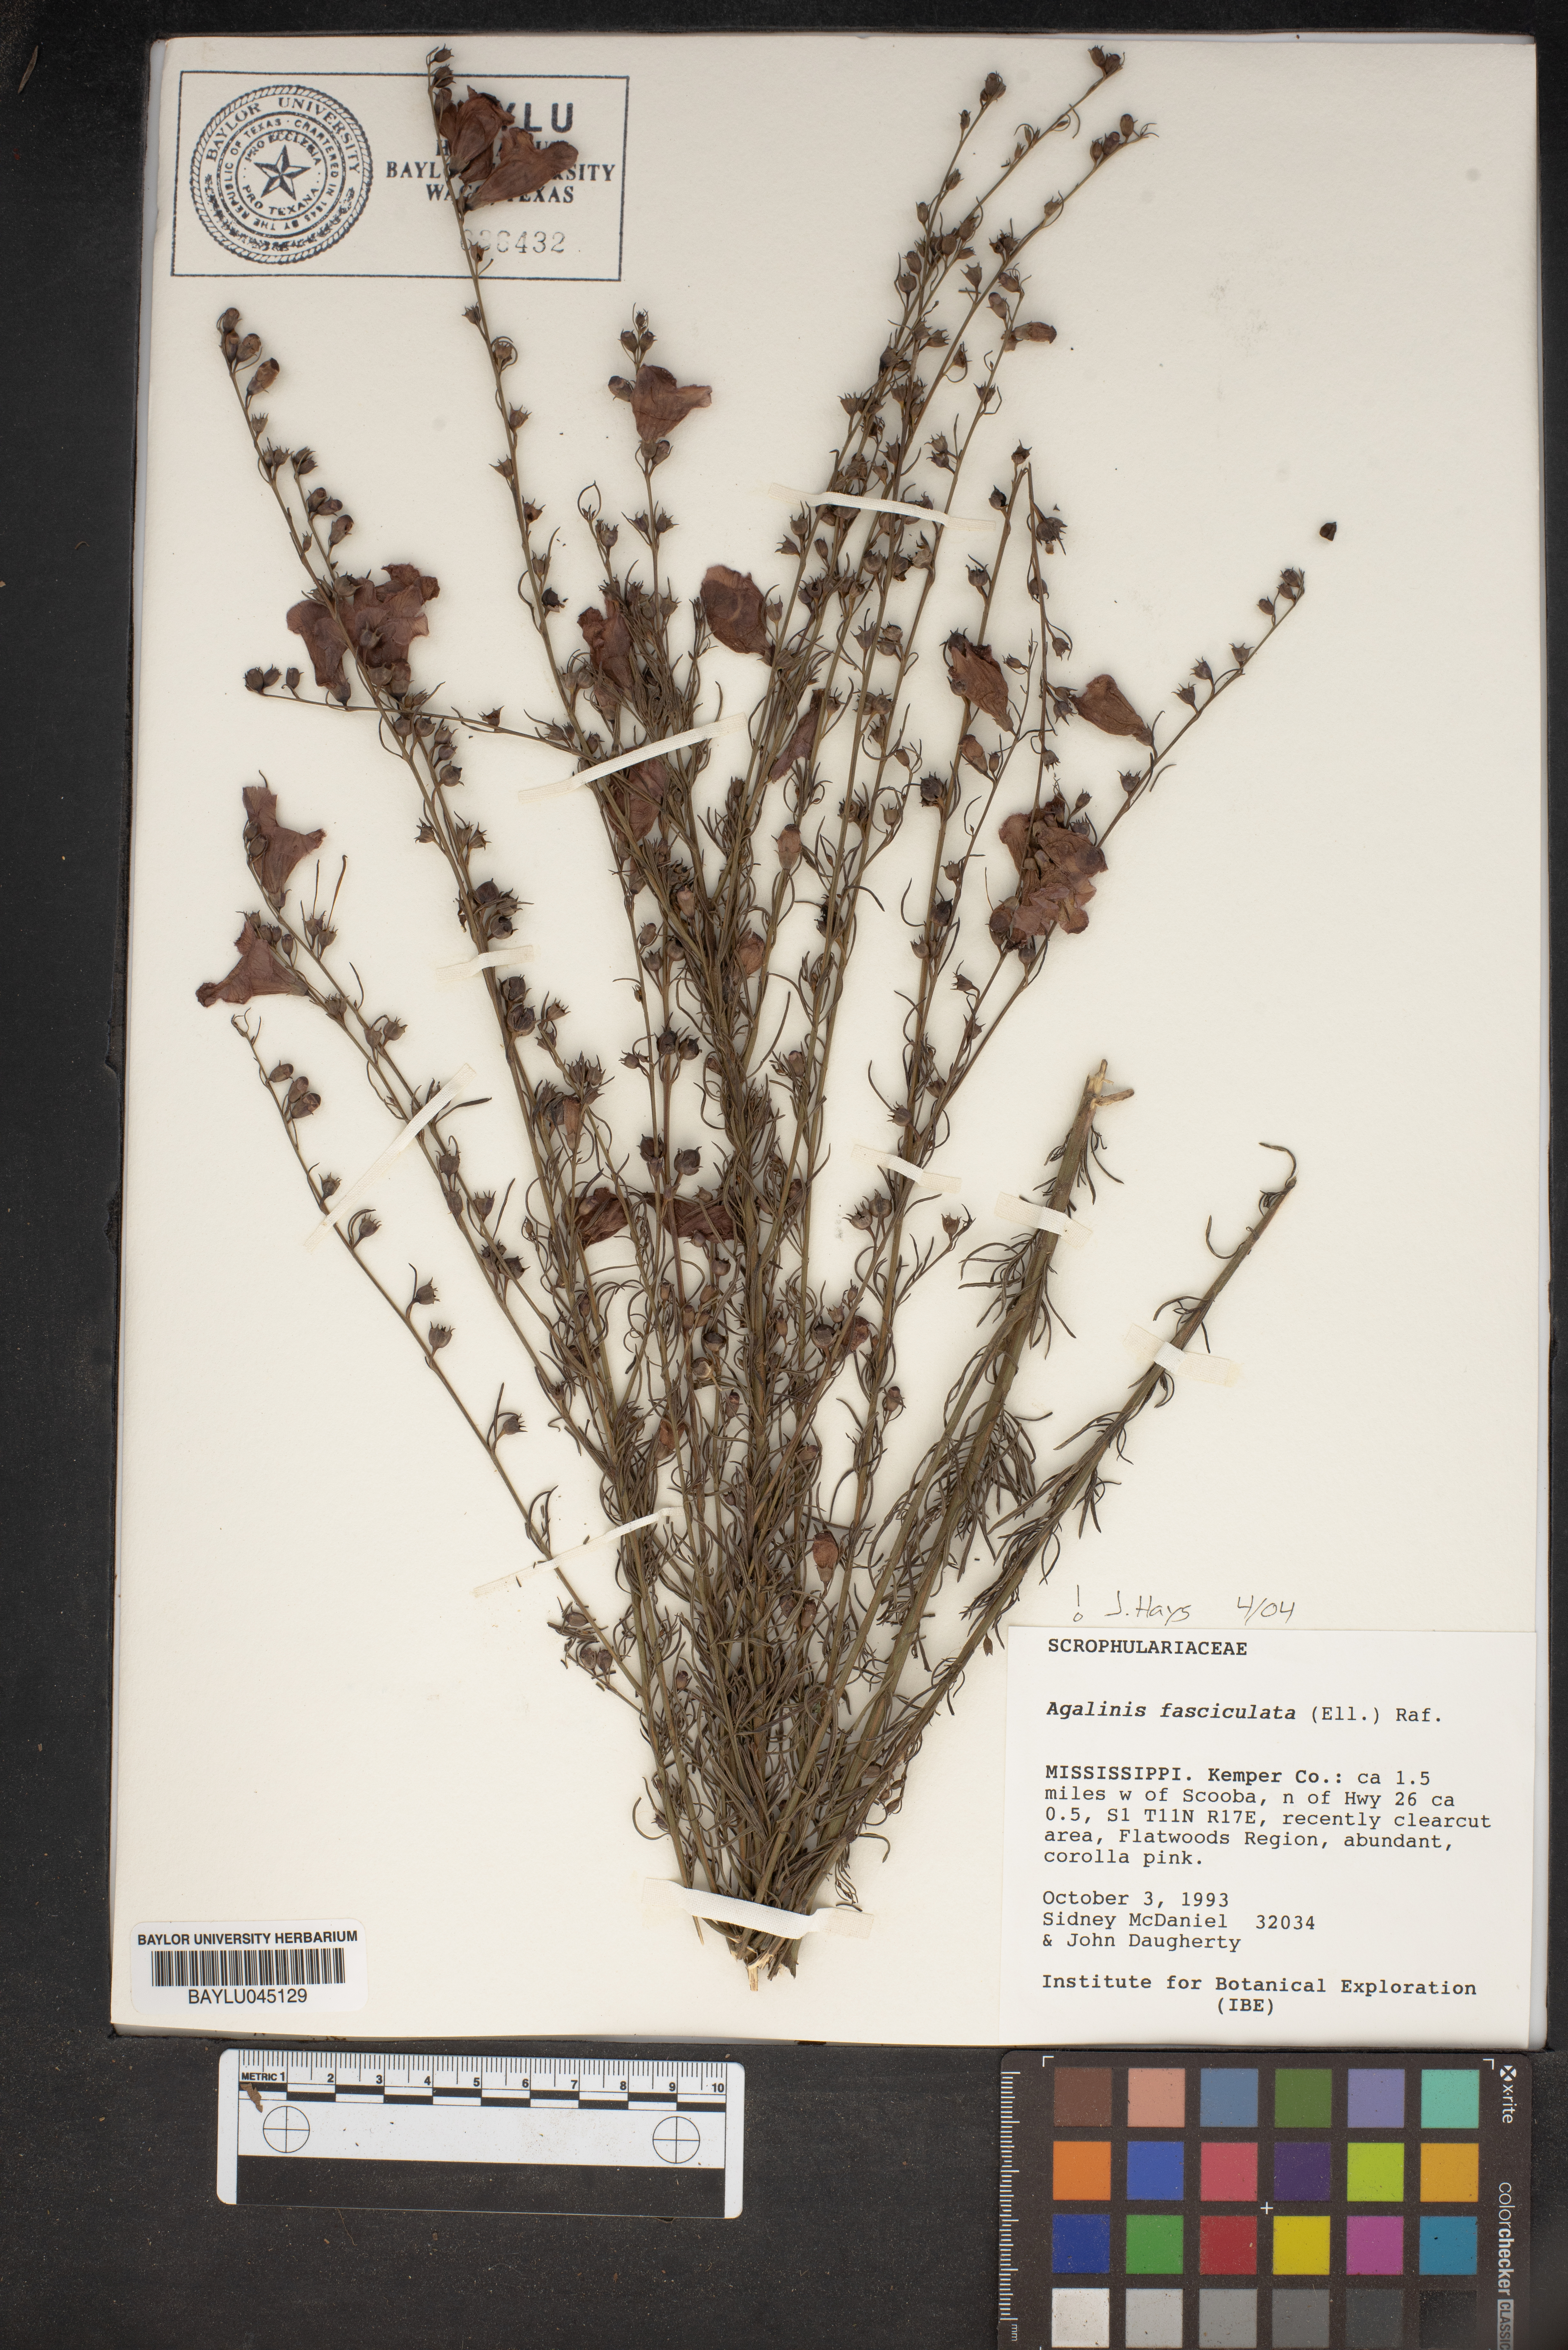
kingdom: Plantae
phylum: Tracheophyta
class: Magnoliopsida
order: Lamiales
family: Orobanchaceae
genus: Agalinis
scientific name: Agalinis fasciculata
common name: Beach false foxglove
